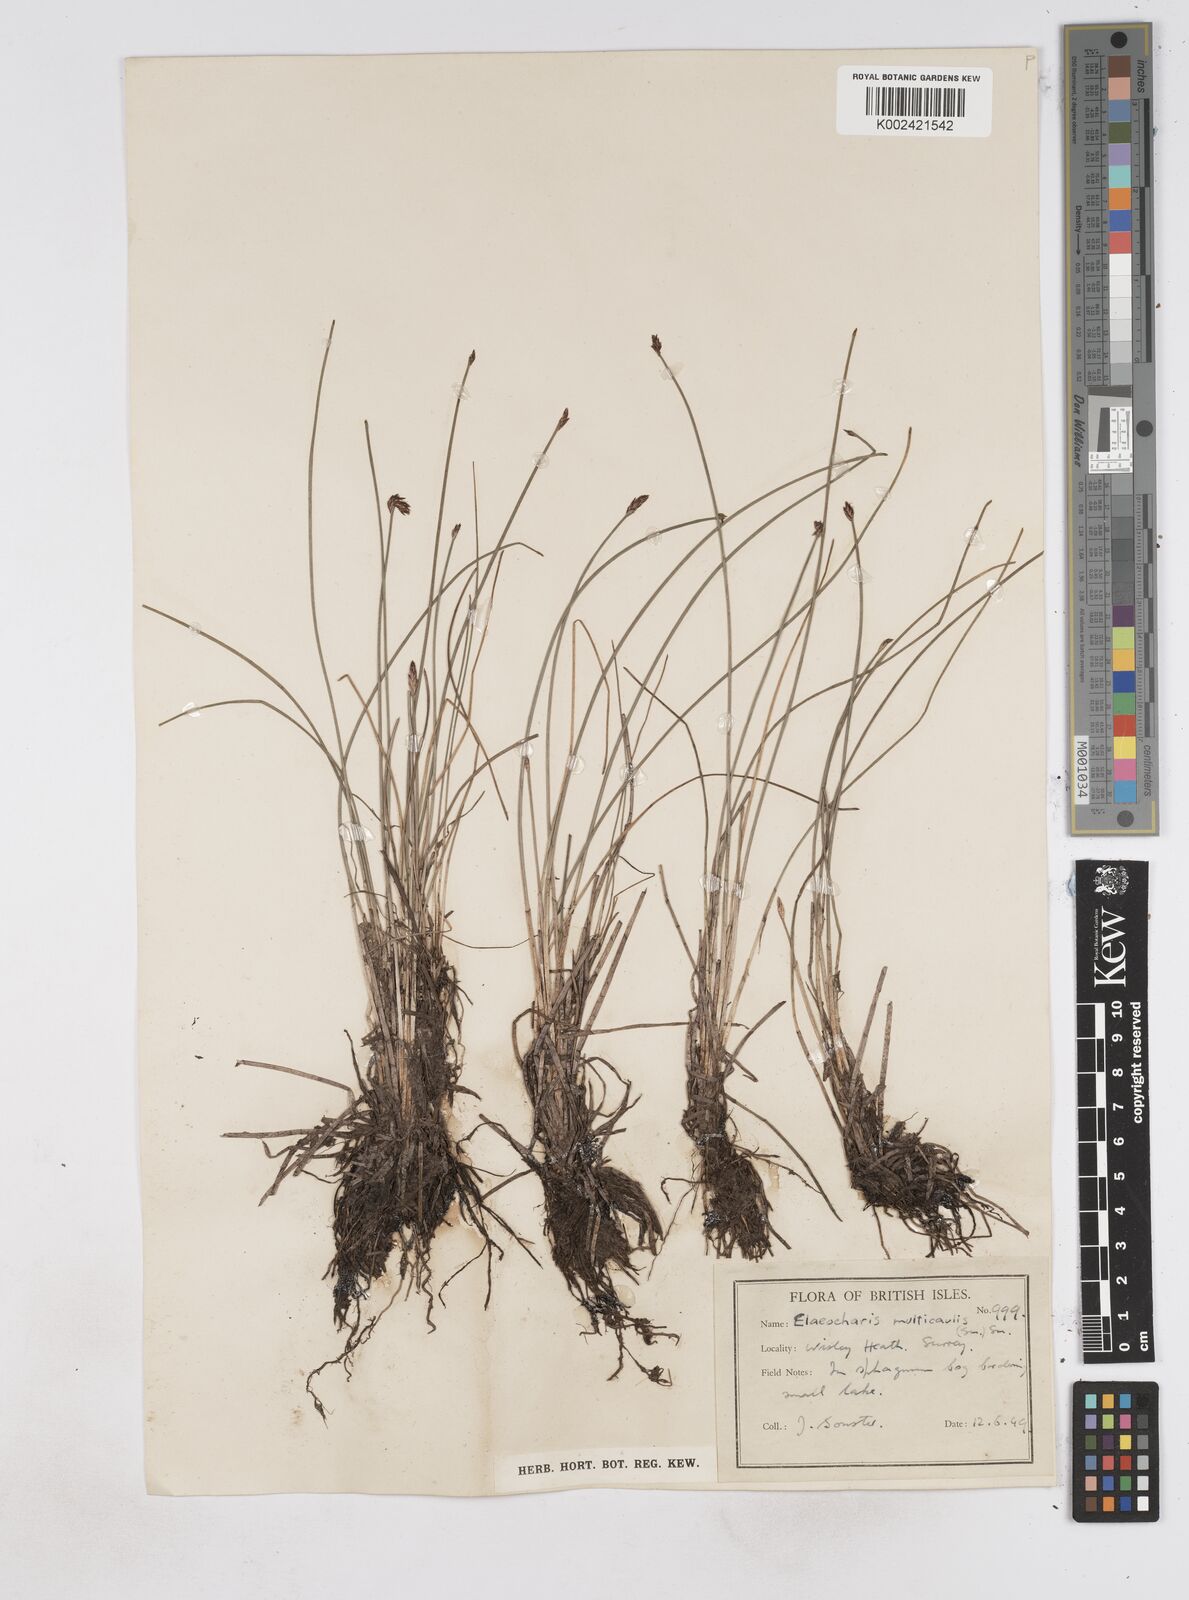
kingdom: Plantae
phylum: Tracheophyta
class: Liliopsida
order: Poales
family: Cyperaceae
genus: Eleocharis
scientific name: Eleocharis multicaulis
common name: Many-stalked spike-rush
